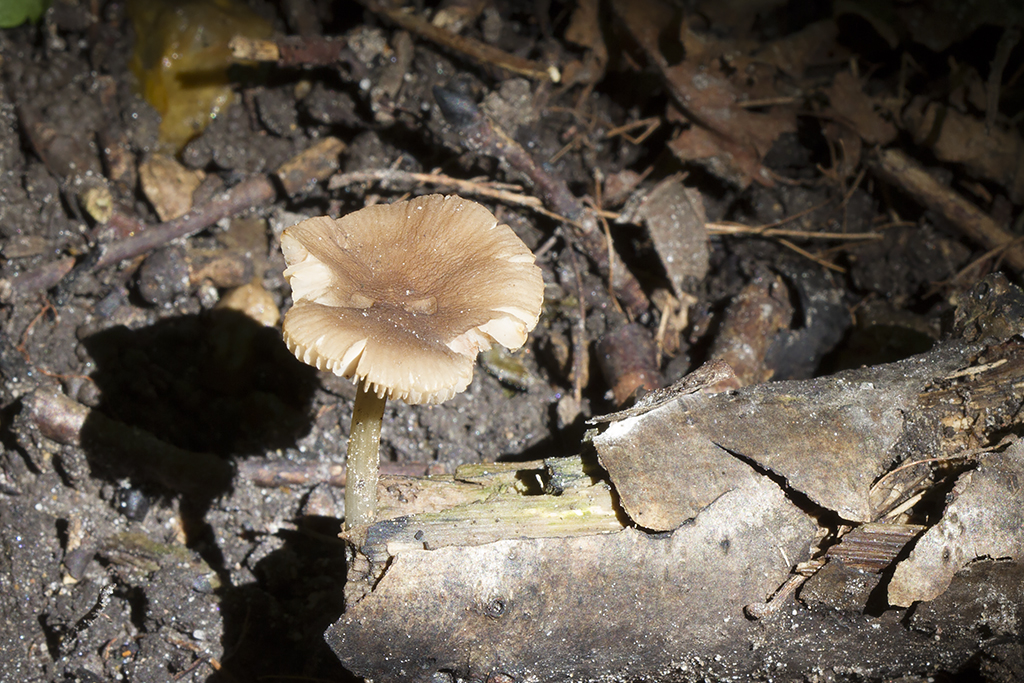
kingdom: Fungi
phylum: Basidiomycota
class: Agaricomycetes
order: Agaricales
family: Pluteaceae
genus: Pluteus
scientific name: Pluteus eludens
